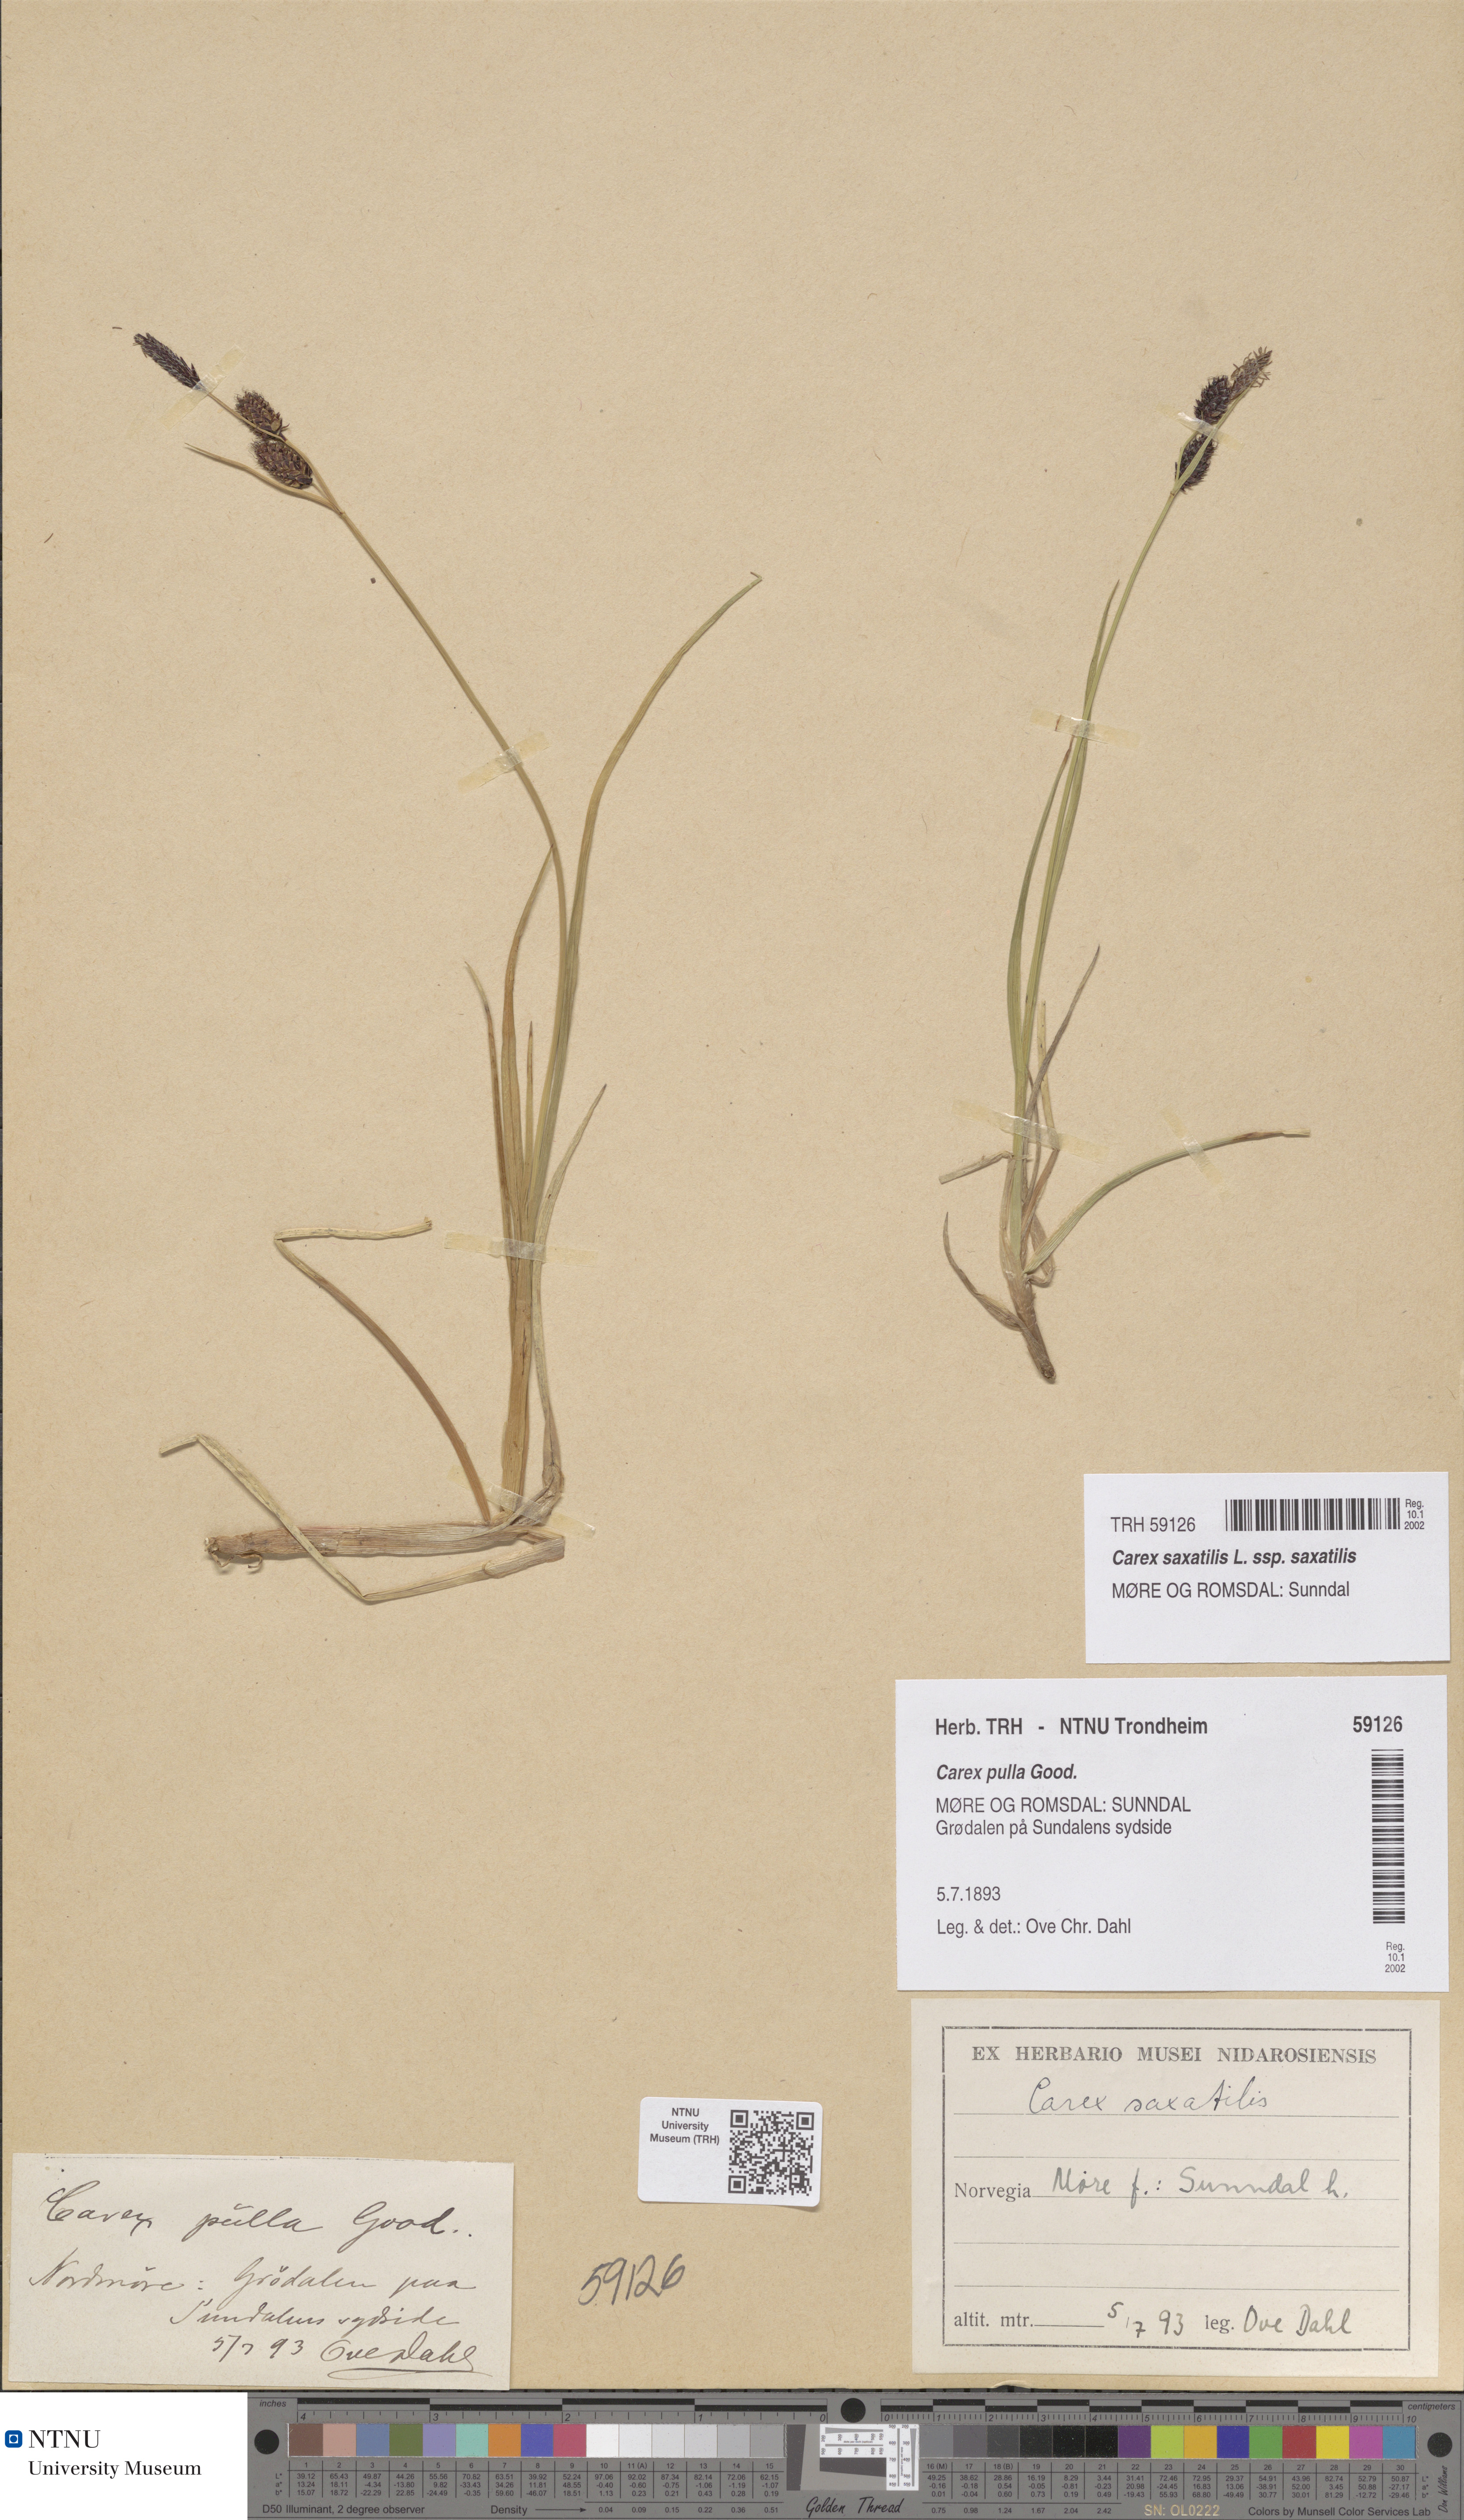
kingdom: Plantae
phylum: Tracheophyta
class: Liliopsida
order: Poales
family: Cyperaceae
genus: Carex
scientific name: Carex saxatilis
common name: Russet sedge
